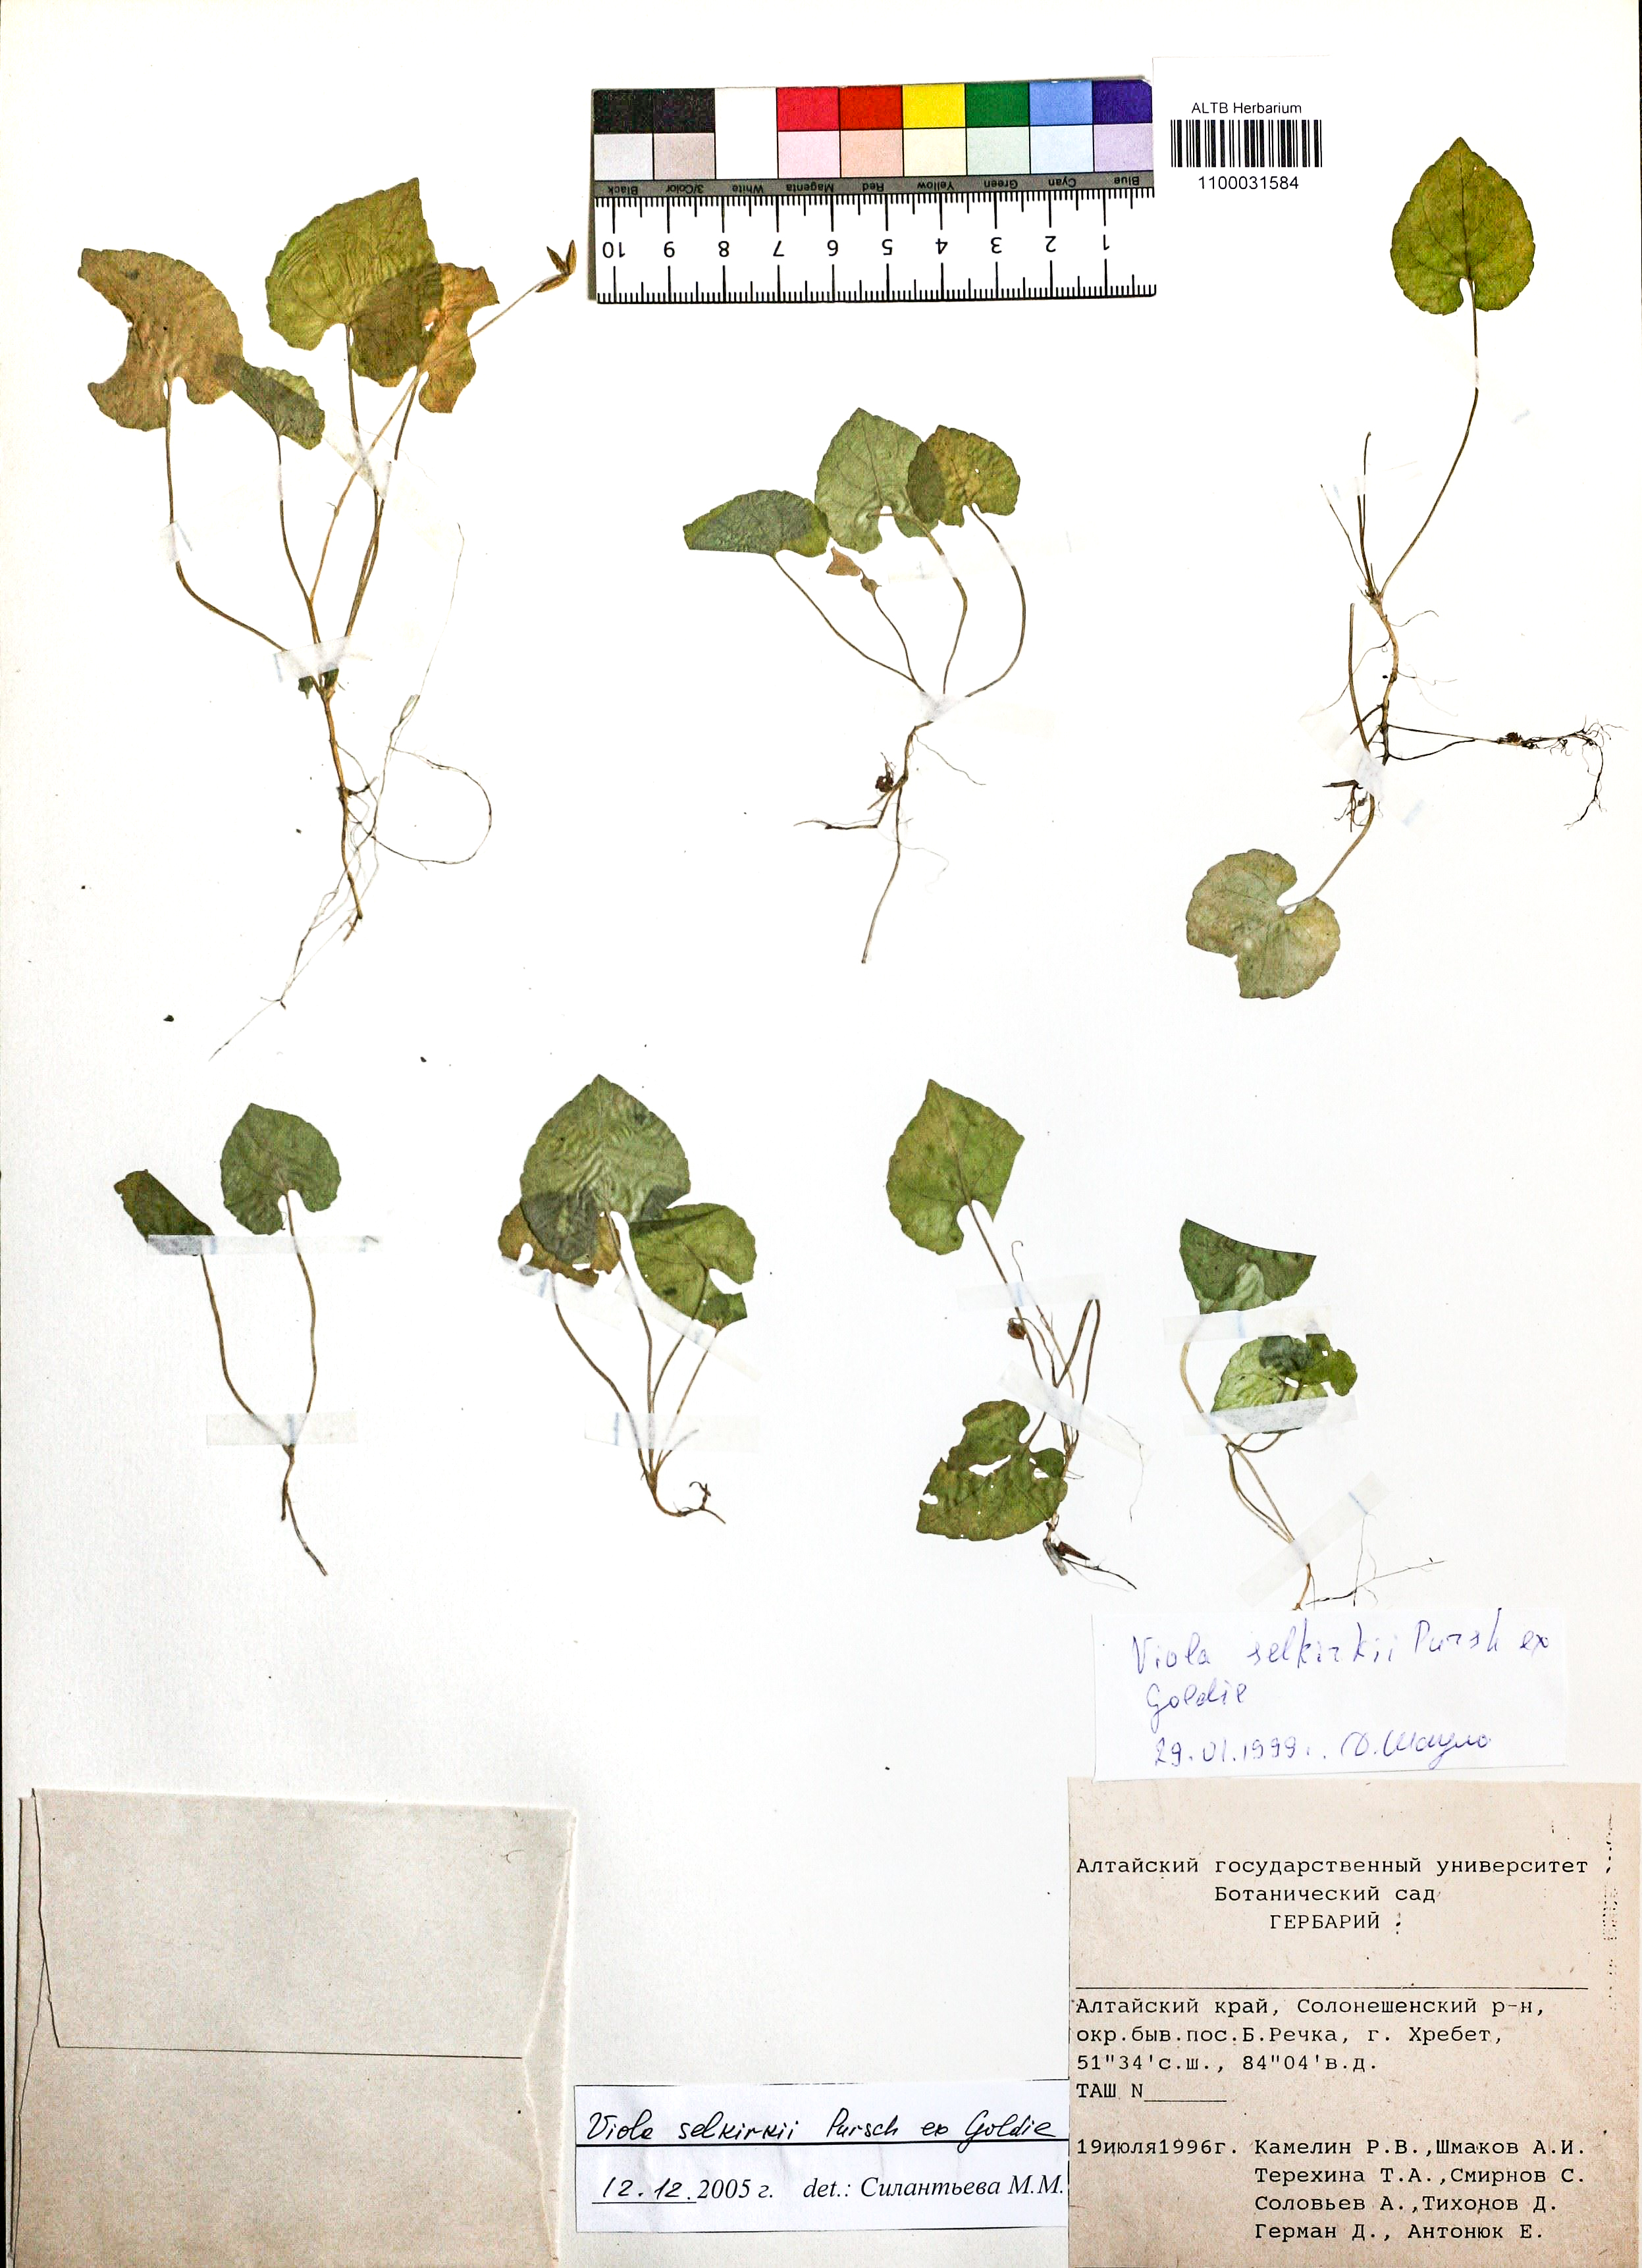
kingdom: Plantae
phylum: Tracheophyta
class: Magnoliopsida
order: Malpighiales
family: Violaceae
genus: Viola
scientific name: Viola selkirkii
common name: Selkirk's violet
